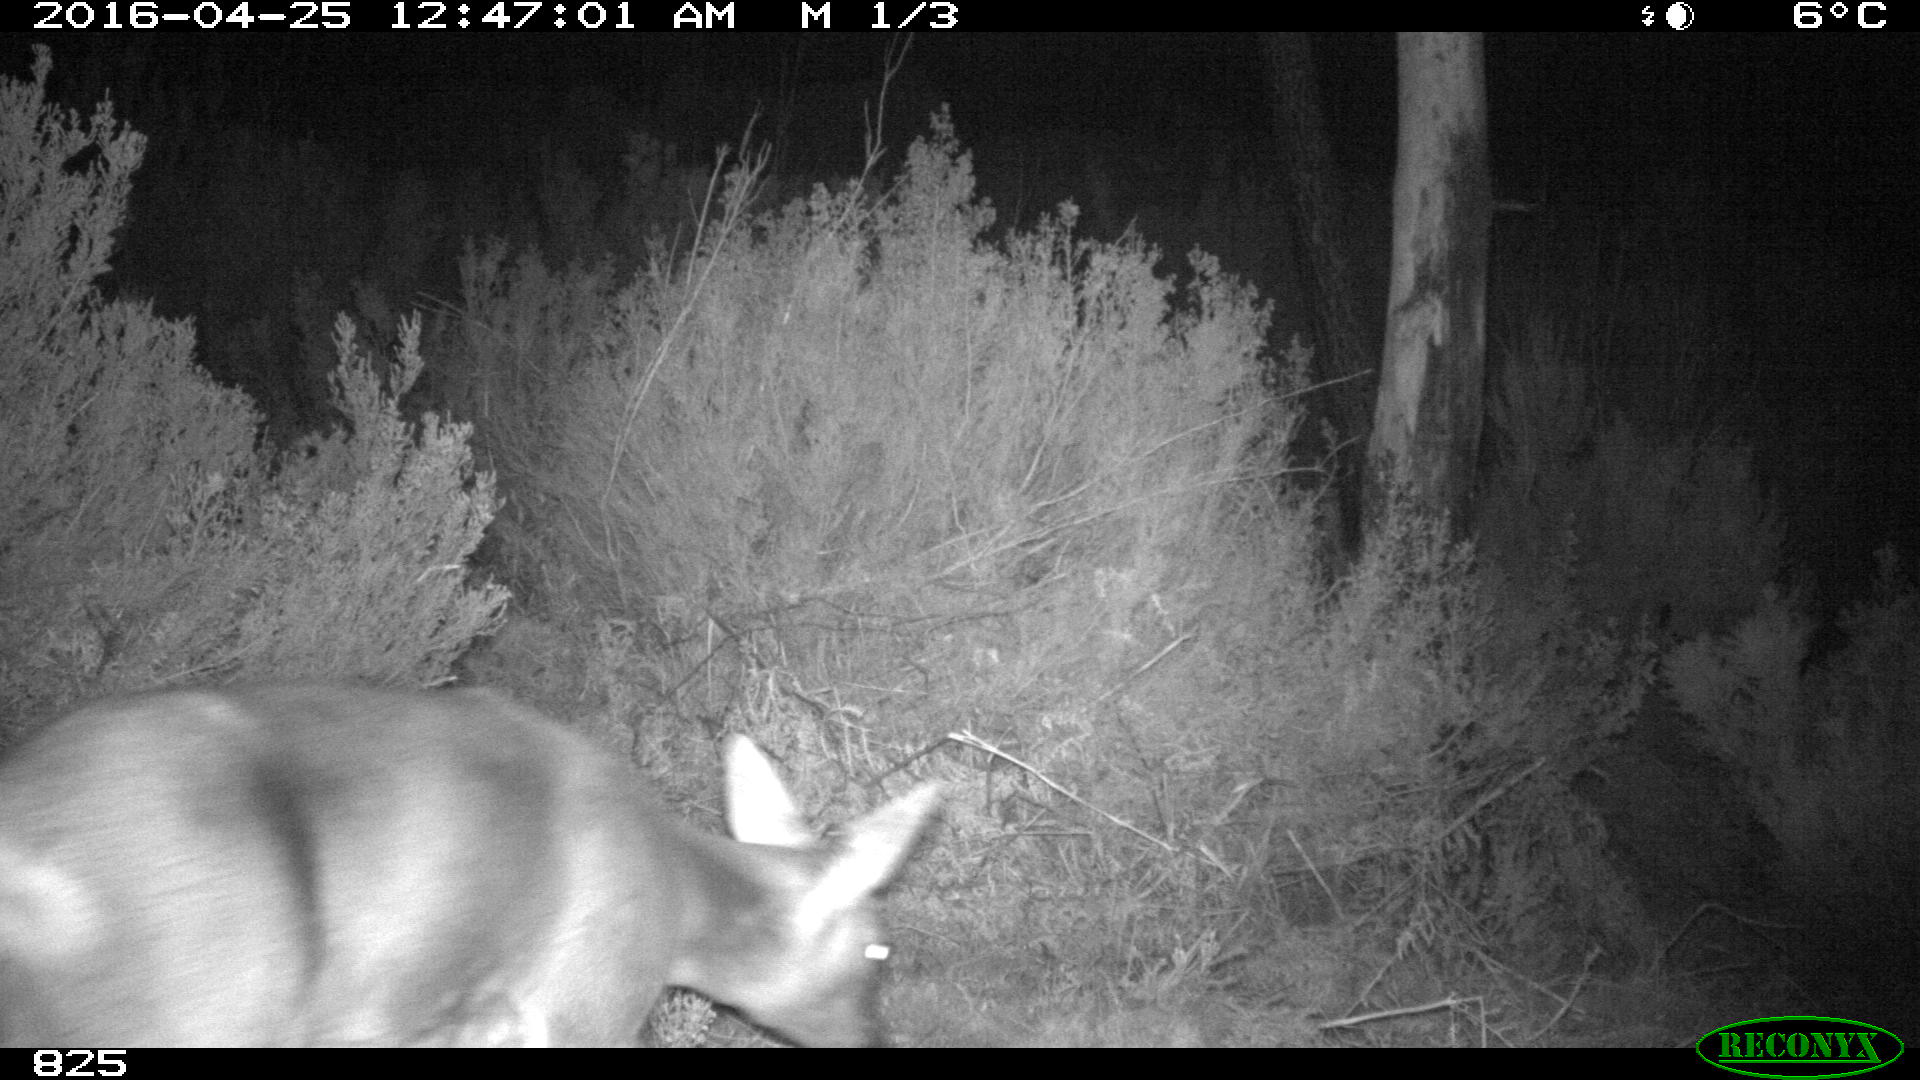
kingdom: Animalia
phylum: Chordata
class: Mammalia
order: Artiodactyla
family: Cervidae
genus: Capreolus
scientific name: Capreolus capreolus
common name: Western roe deer
